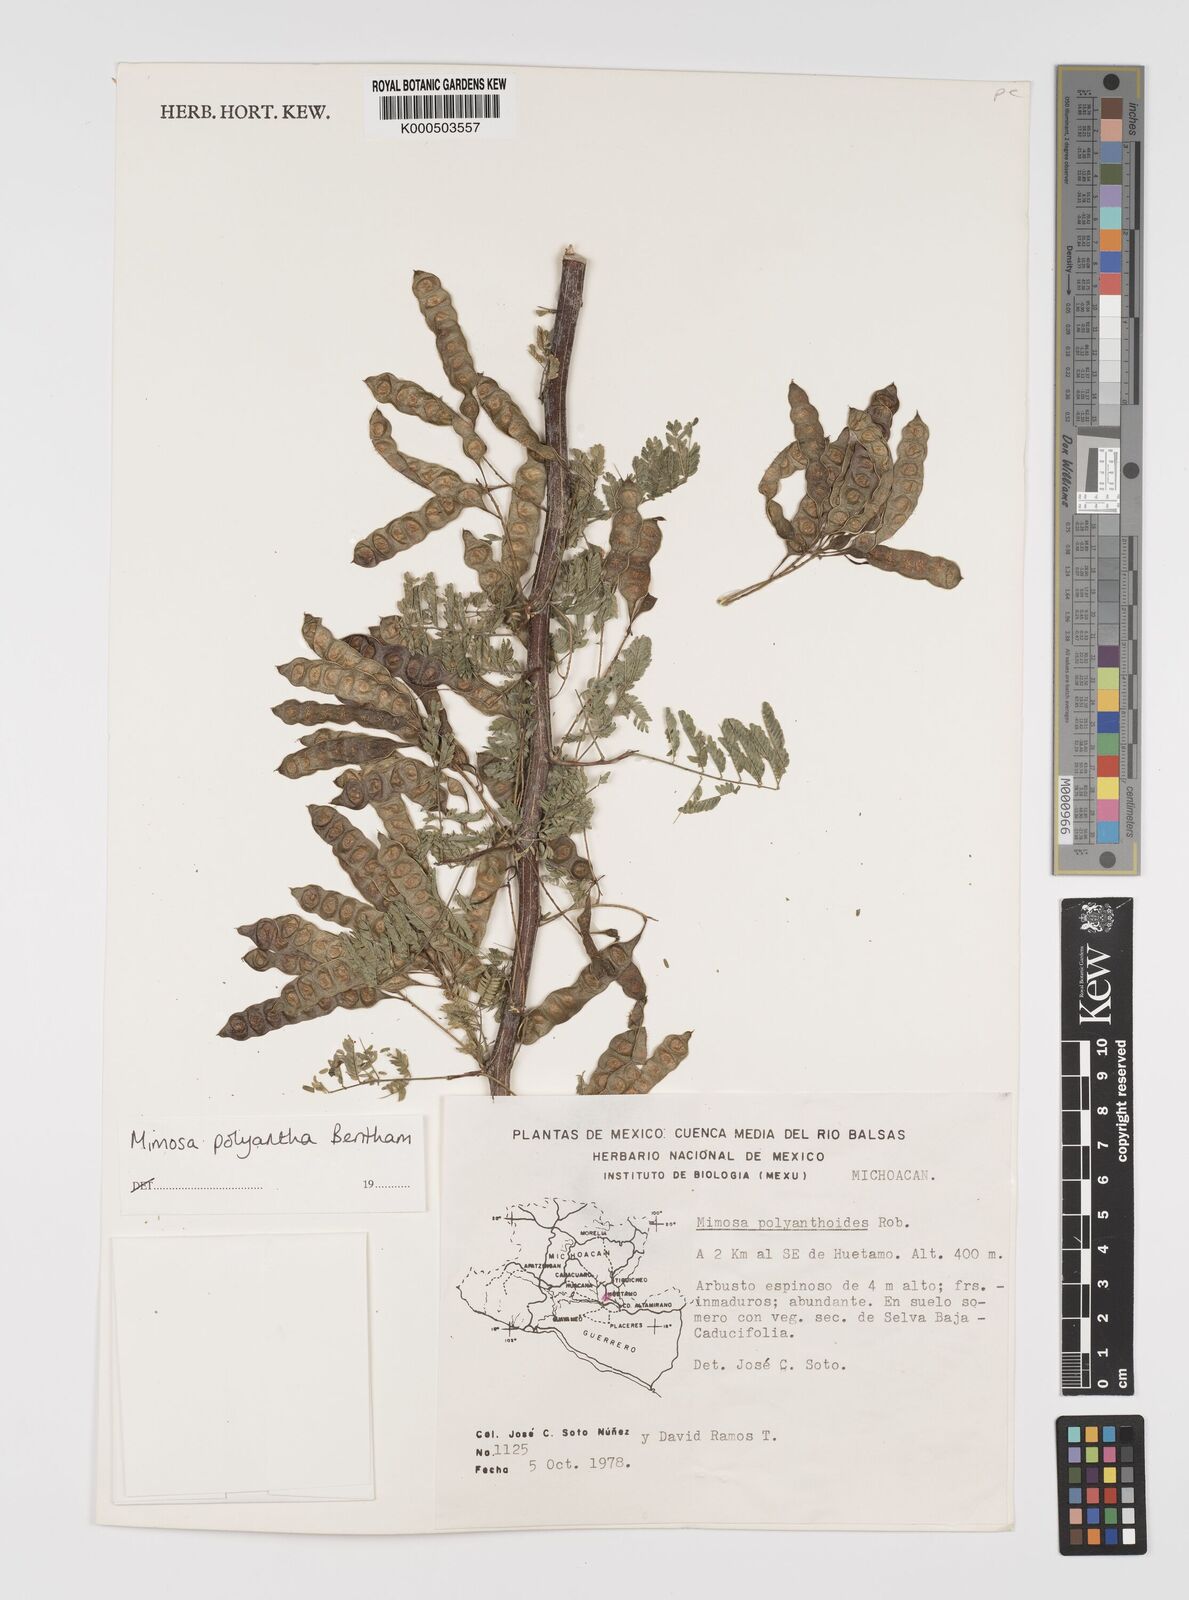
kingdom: Plantae
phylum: Tracheophyta
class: Magnoliopsida
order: Fabales
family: Fabaceae
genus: Mimosa
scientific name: Mimosa polyantha
